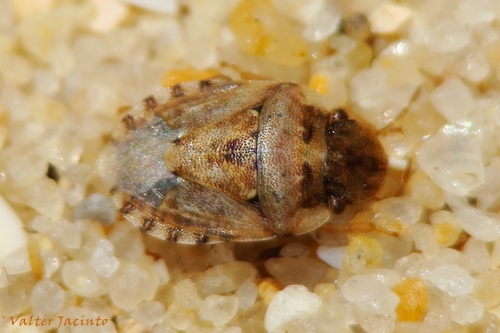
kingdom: Animalia
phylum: Arthropoda
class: Insecta
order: Hemiptera
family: Pentatomidae
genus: Sciocoris
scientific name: Sciocoris conspurcatus
